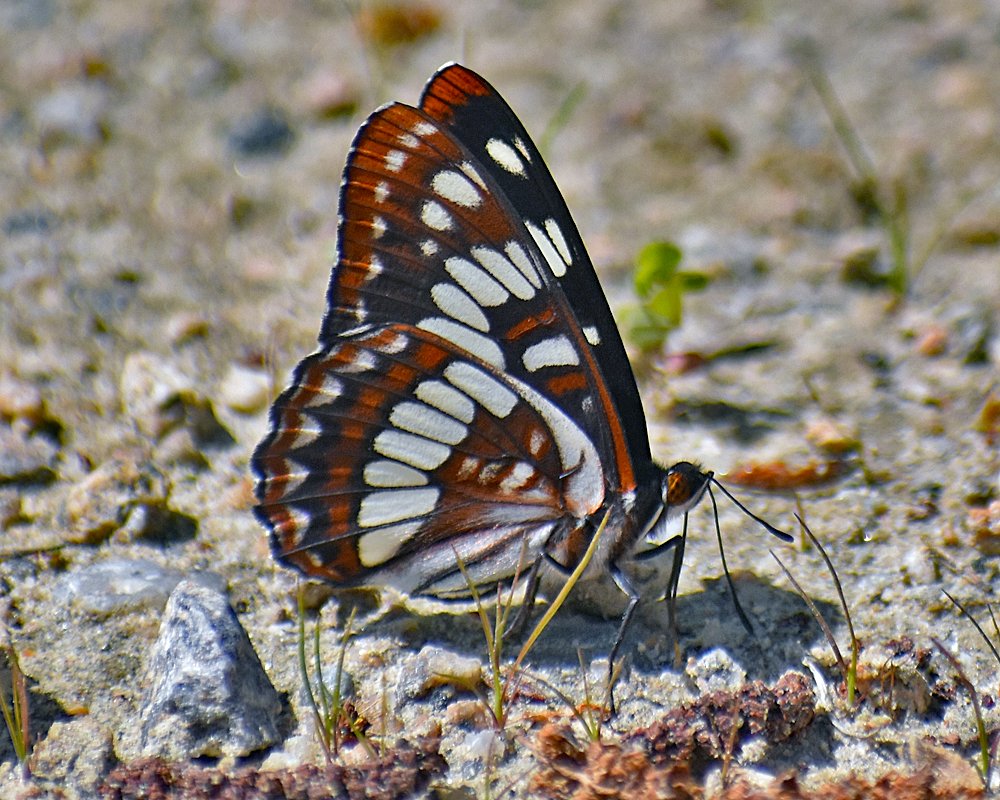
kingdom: Animalia
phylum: Arthropoda
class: Insecta
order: Lepidoptera
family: Nymphalidae
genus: Limenitis
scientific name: Limenitis lorquini
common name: Lorquin's Admiral
